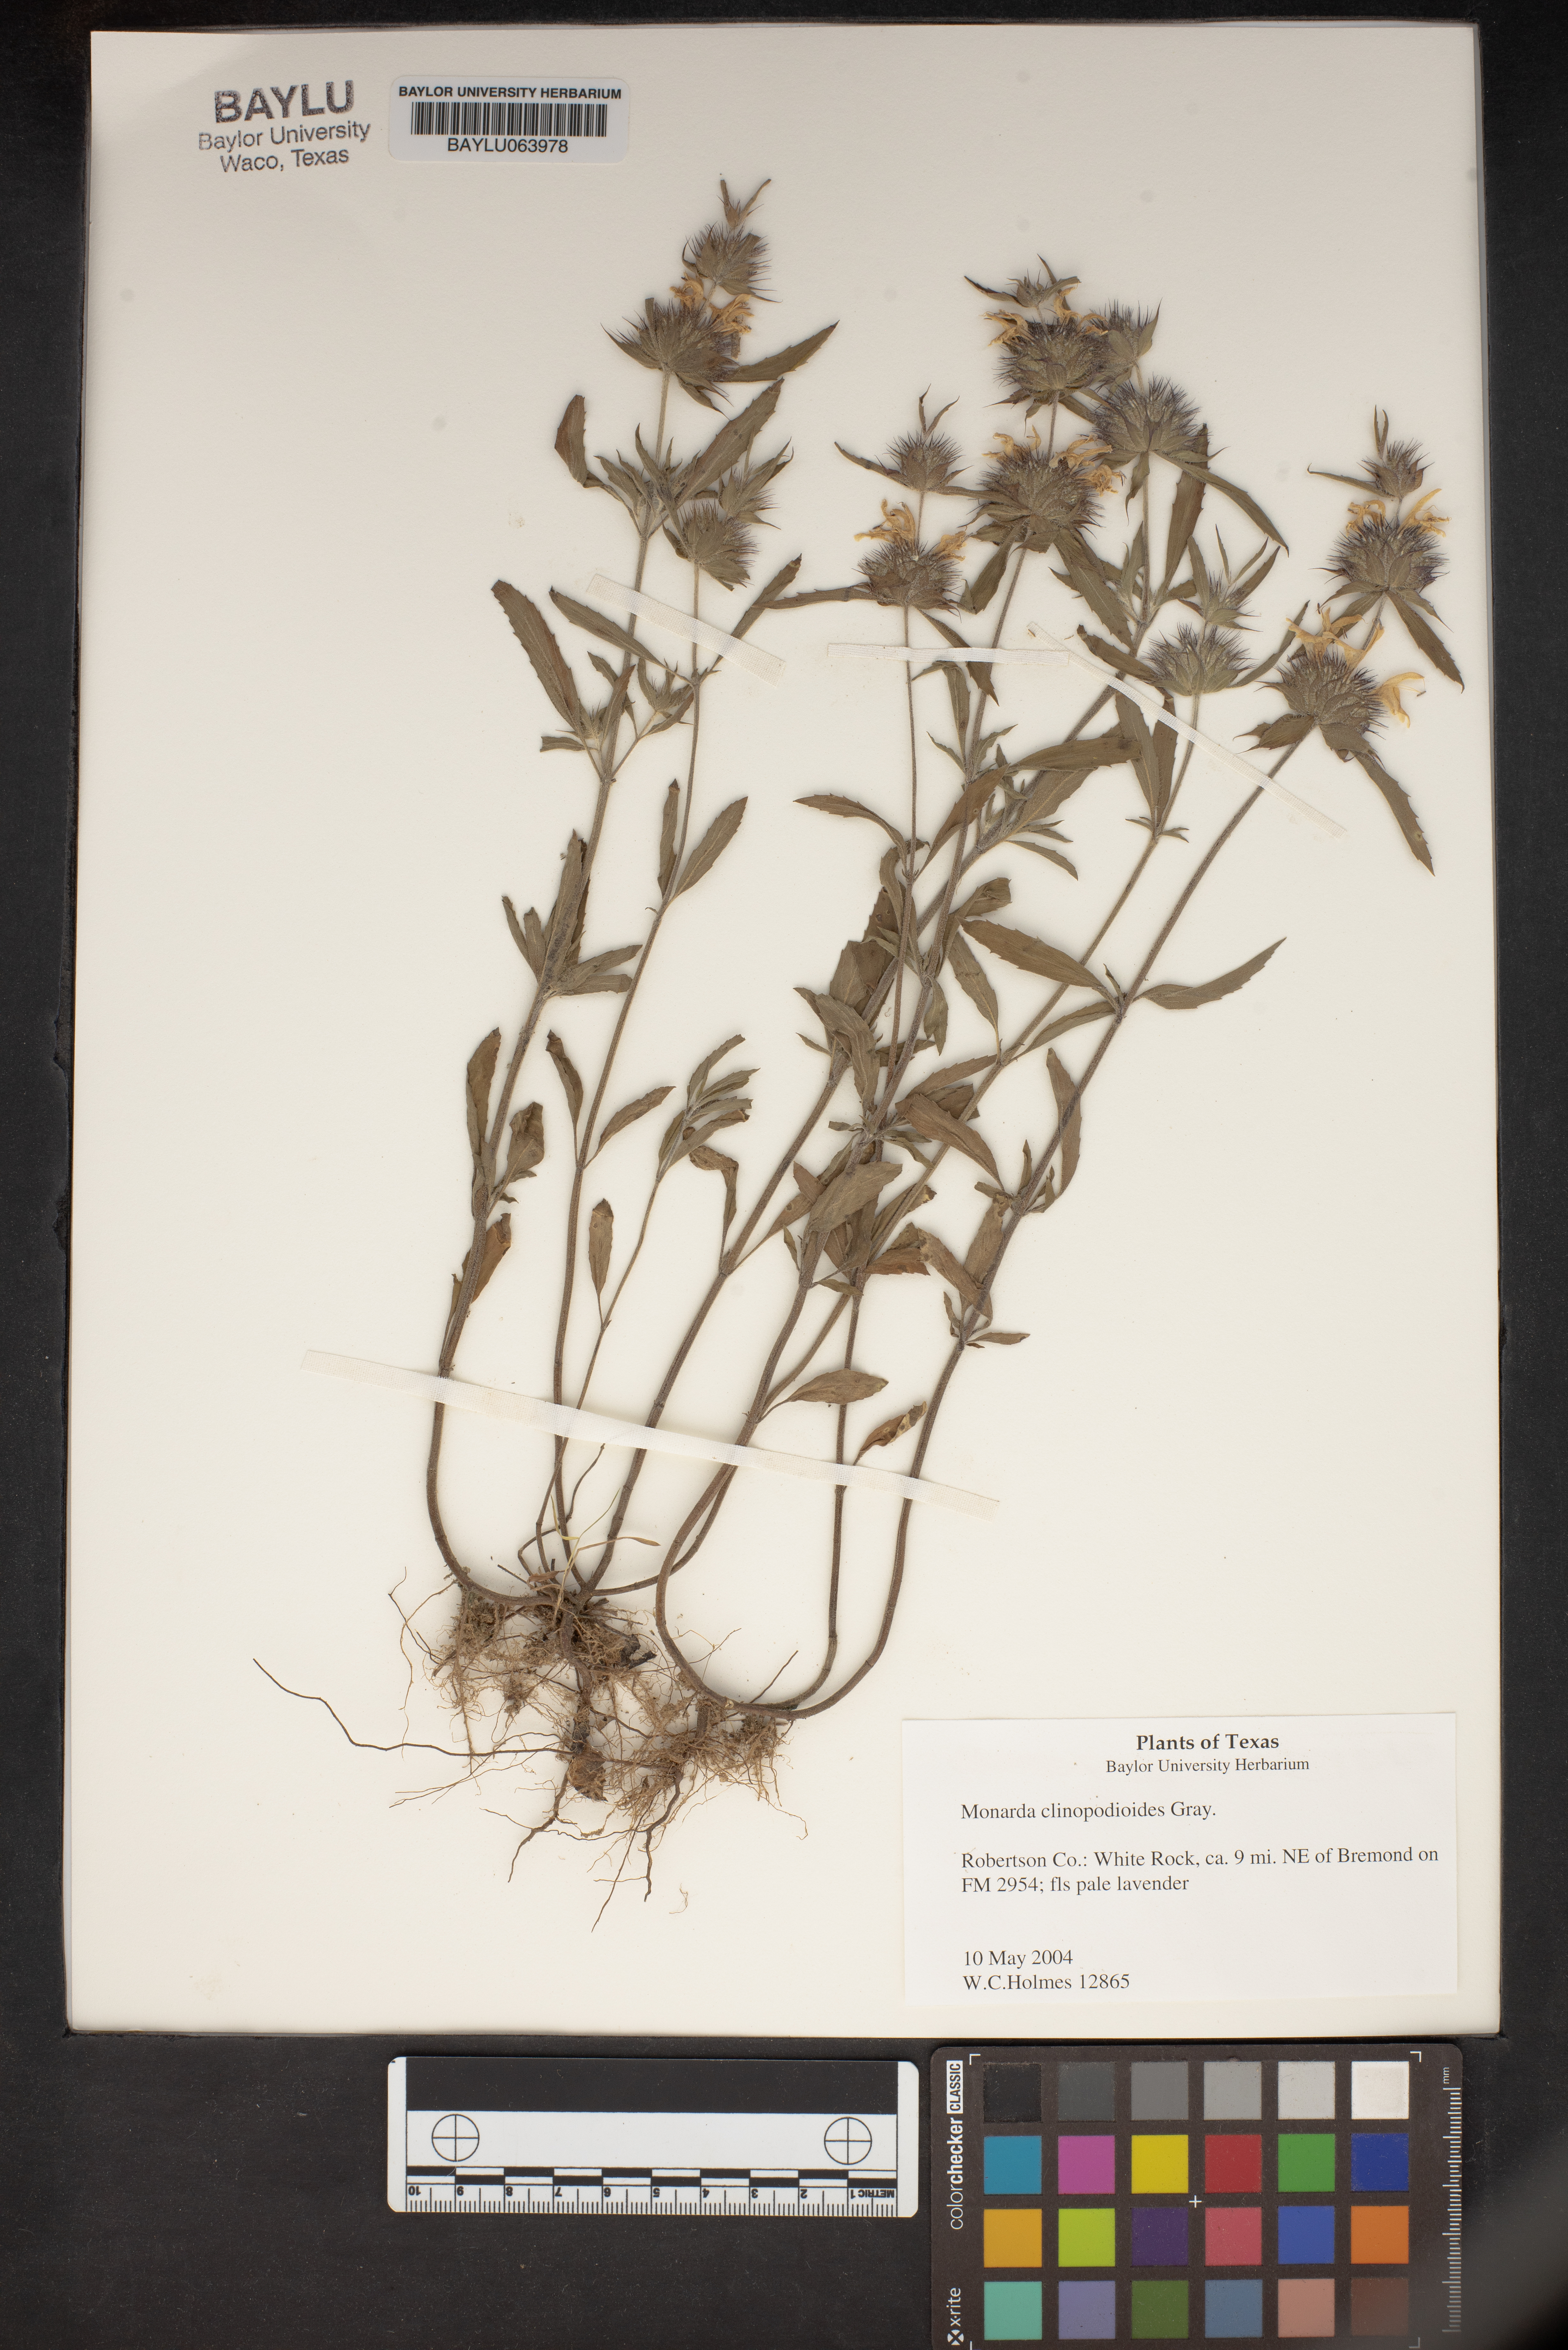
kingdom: Plantae
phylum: Tracheophyta
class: Magnoliopsida
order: Lamiales
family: Lamiaceae
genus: Monarda
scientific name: Monarda clinopodioides
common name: Basil beebalm
